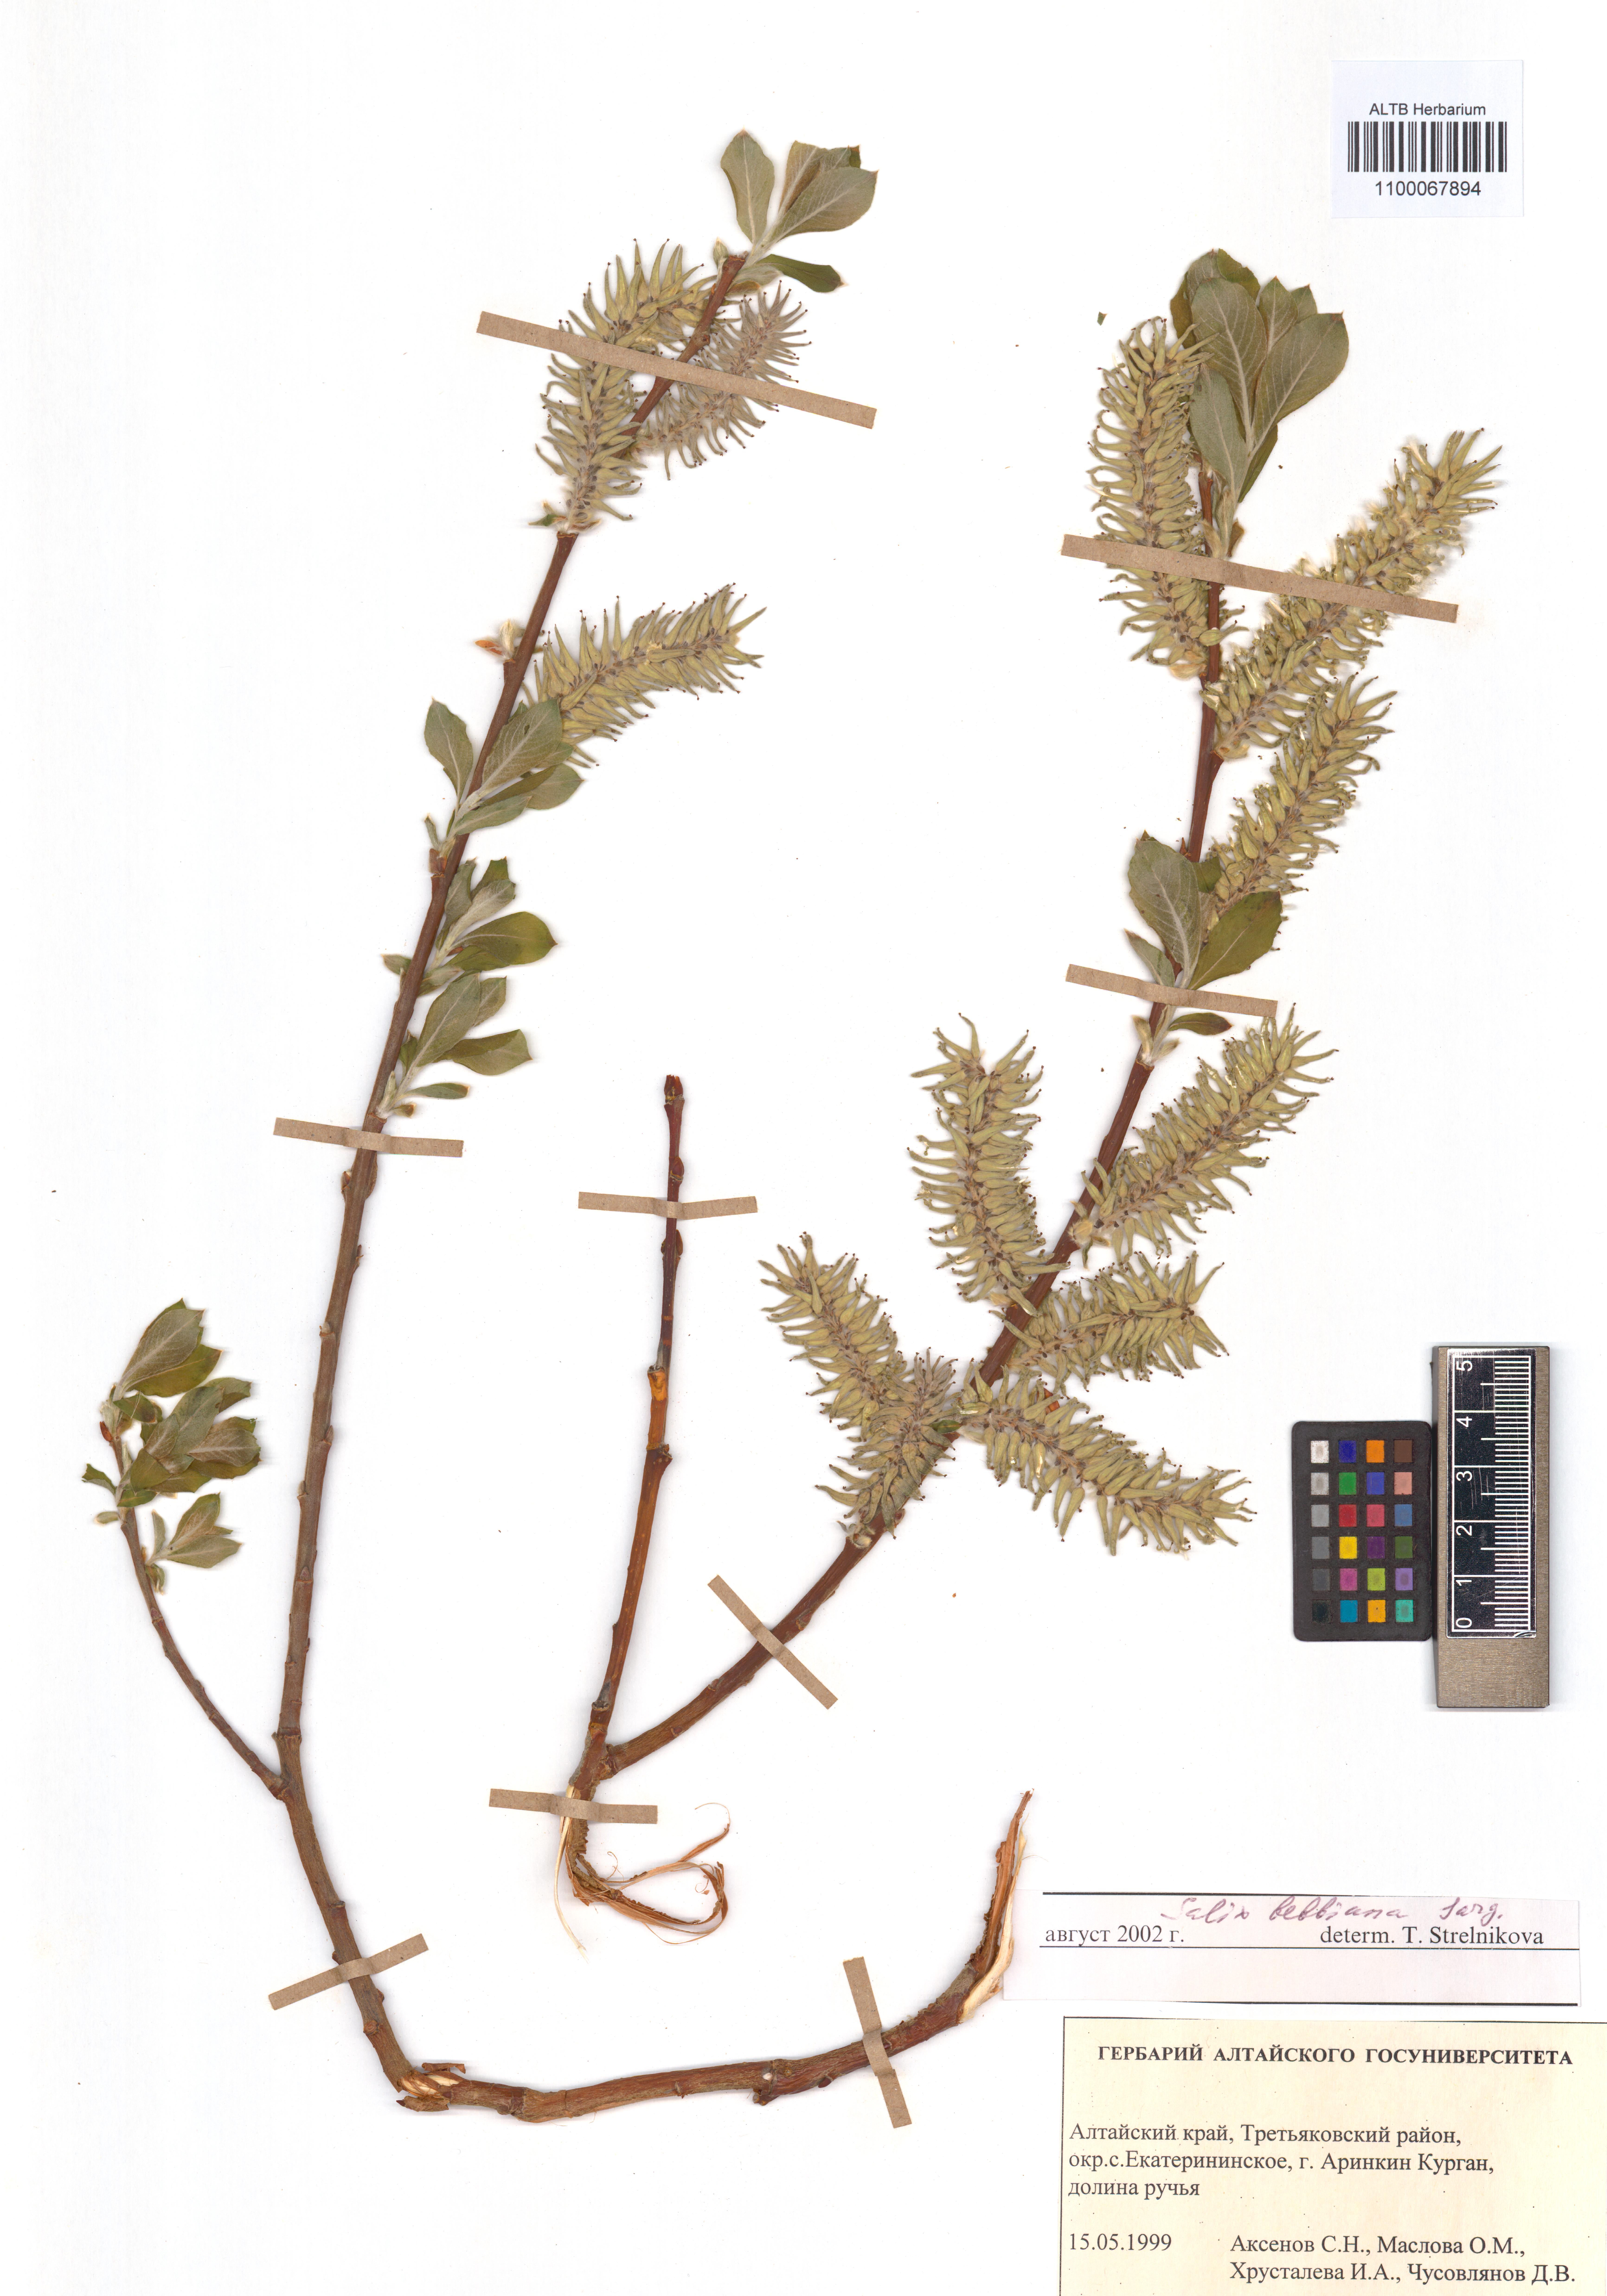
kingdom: Plantae
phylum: Tracheophyta
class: Magnoliopsida
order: Malpighiales
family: Salicaceae
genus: Salix
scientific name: Salix bebbiana
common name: Bebb's willow
